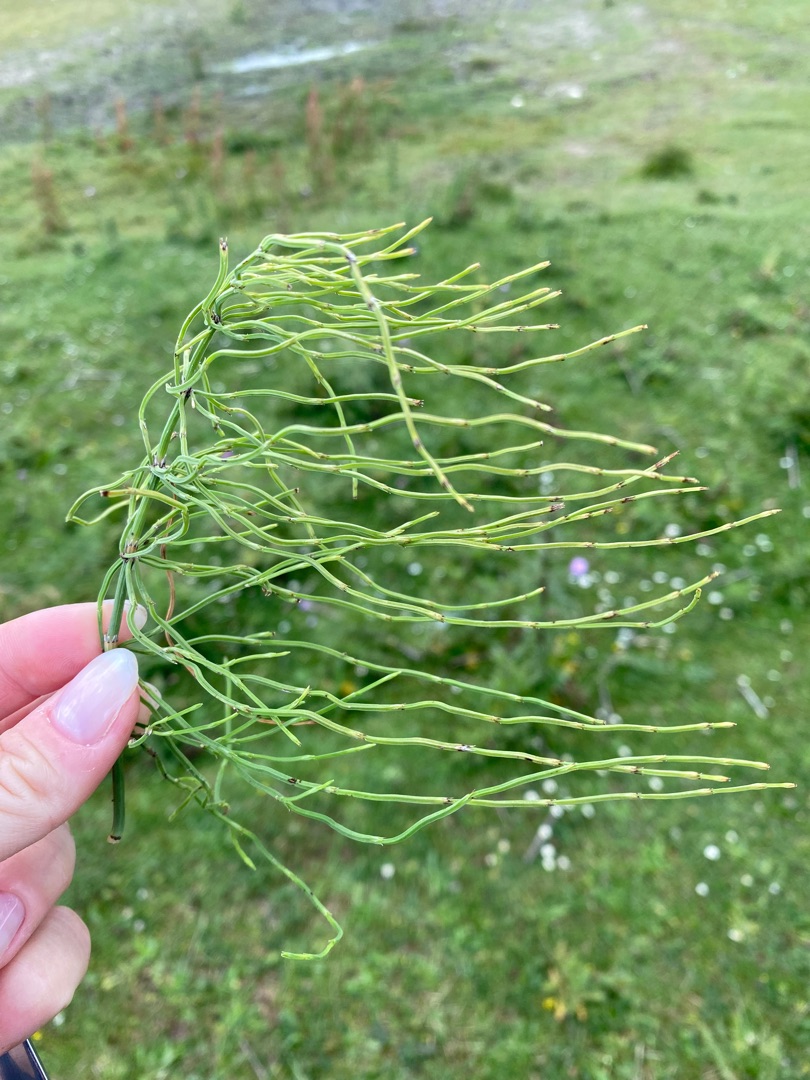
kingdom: Plantae
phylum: Tracheophyta
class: Polypodiopsida
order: Equisetales
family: Equisetaceae
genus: Equisetum
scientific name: Equisetum arvense
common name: Ager-padderok
